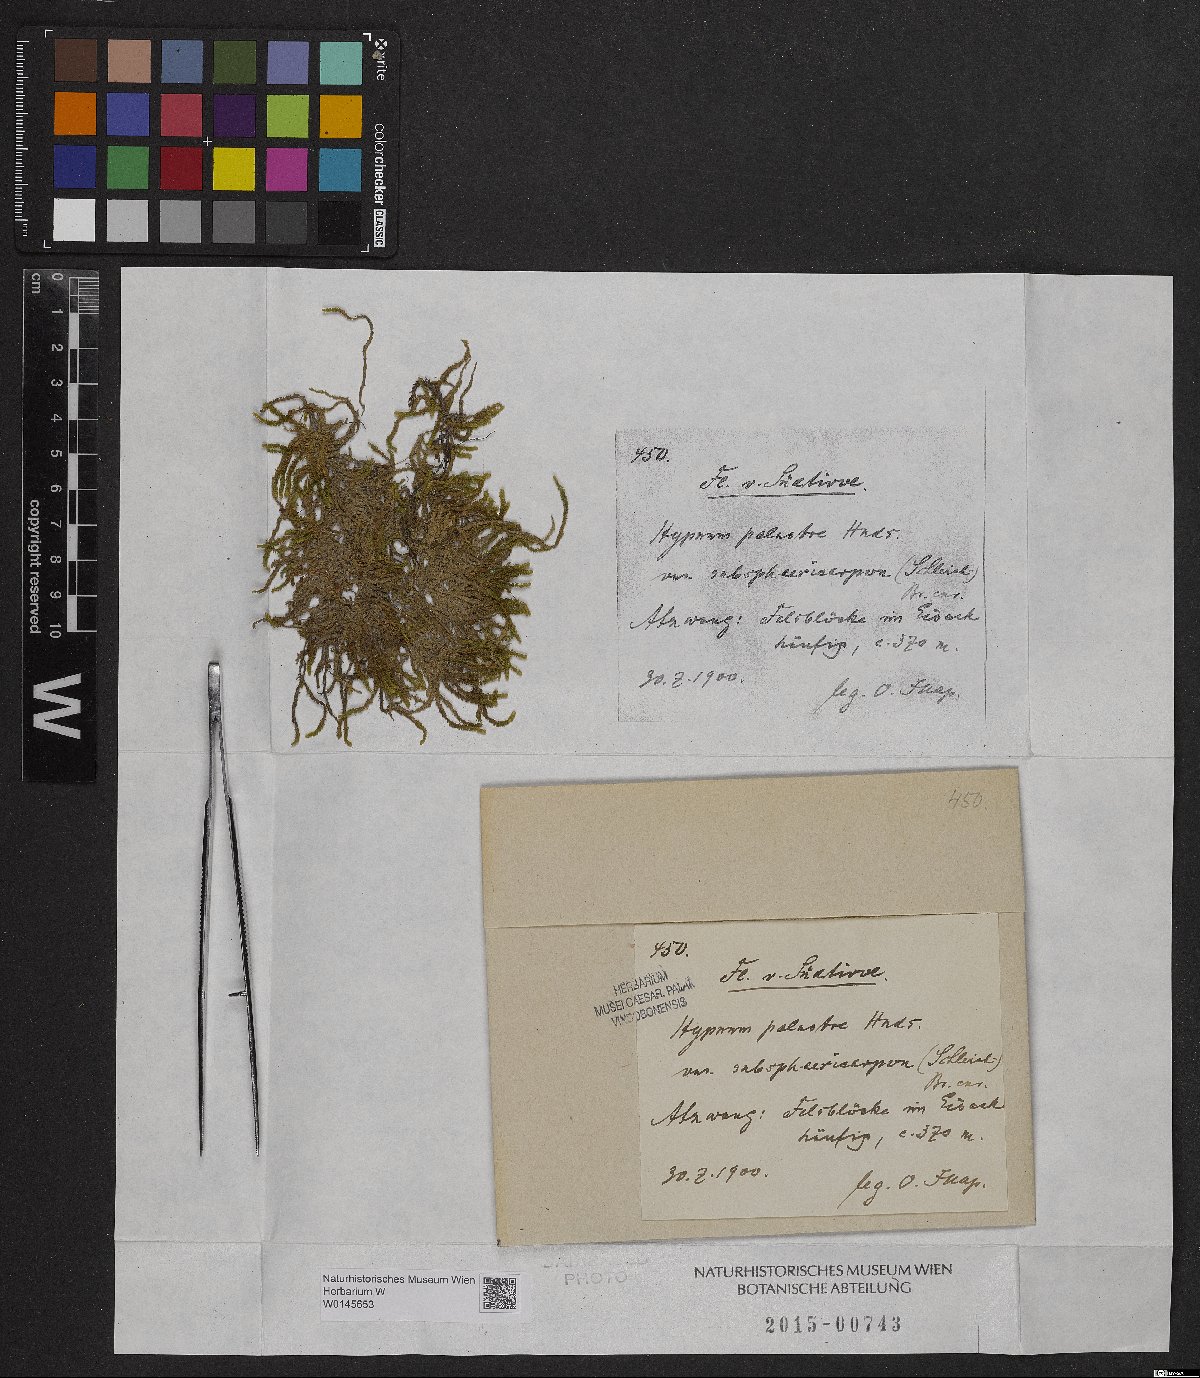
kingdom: Plantae
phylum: Bryophyta
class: Bryopsida
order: Hypnales
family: Amblystegiaceae
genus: Hygrohypnum
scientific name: Hygrohypnum luridum
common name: Drab brook moss
